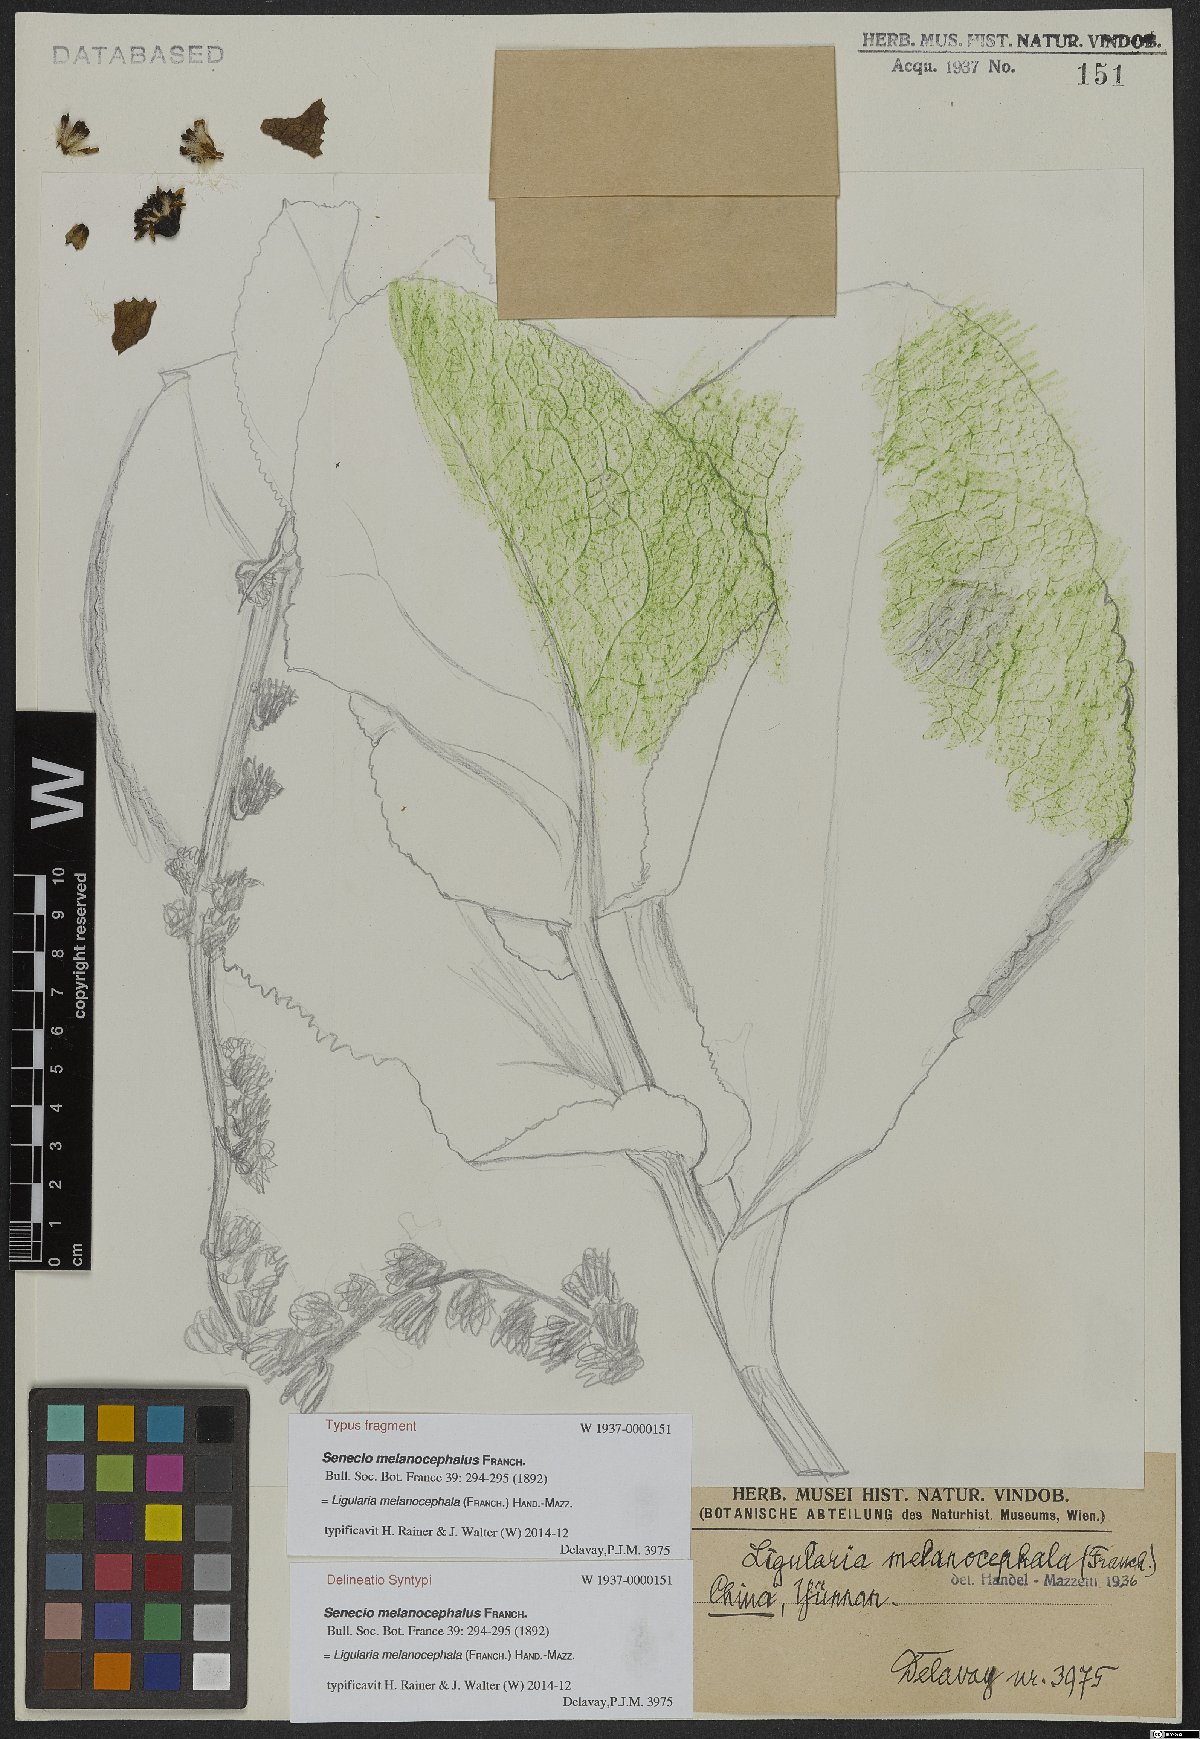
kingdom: Plantae
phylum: Tracheophyta
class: Magnoliopsida
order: Asterales
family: Asteraceae
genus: Ligularia
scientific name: Ligularia melanocephala
